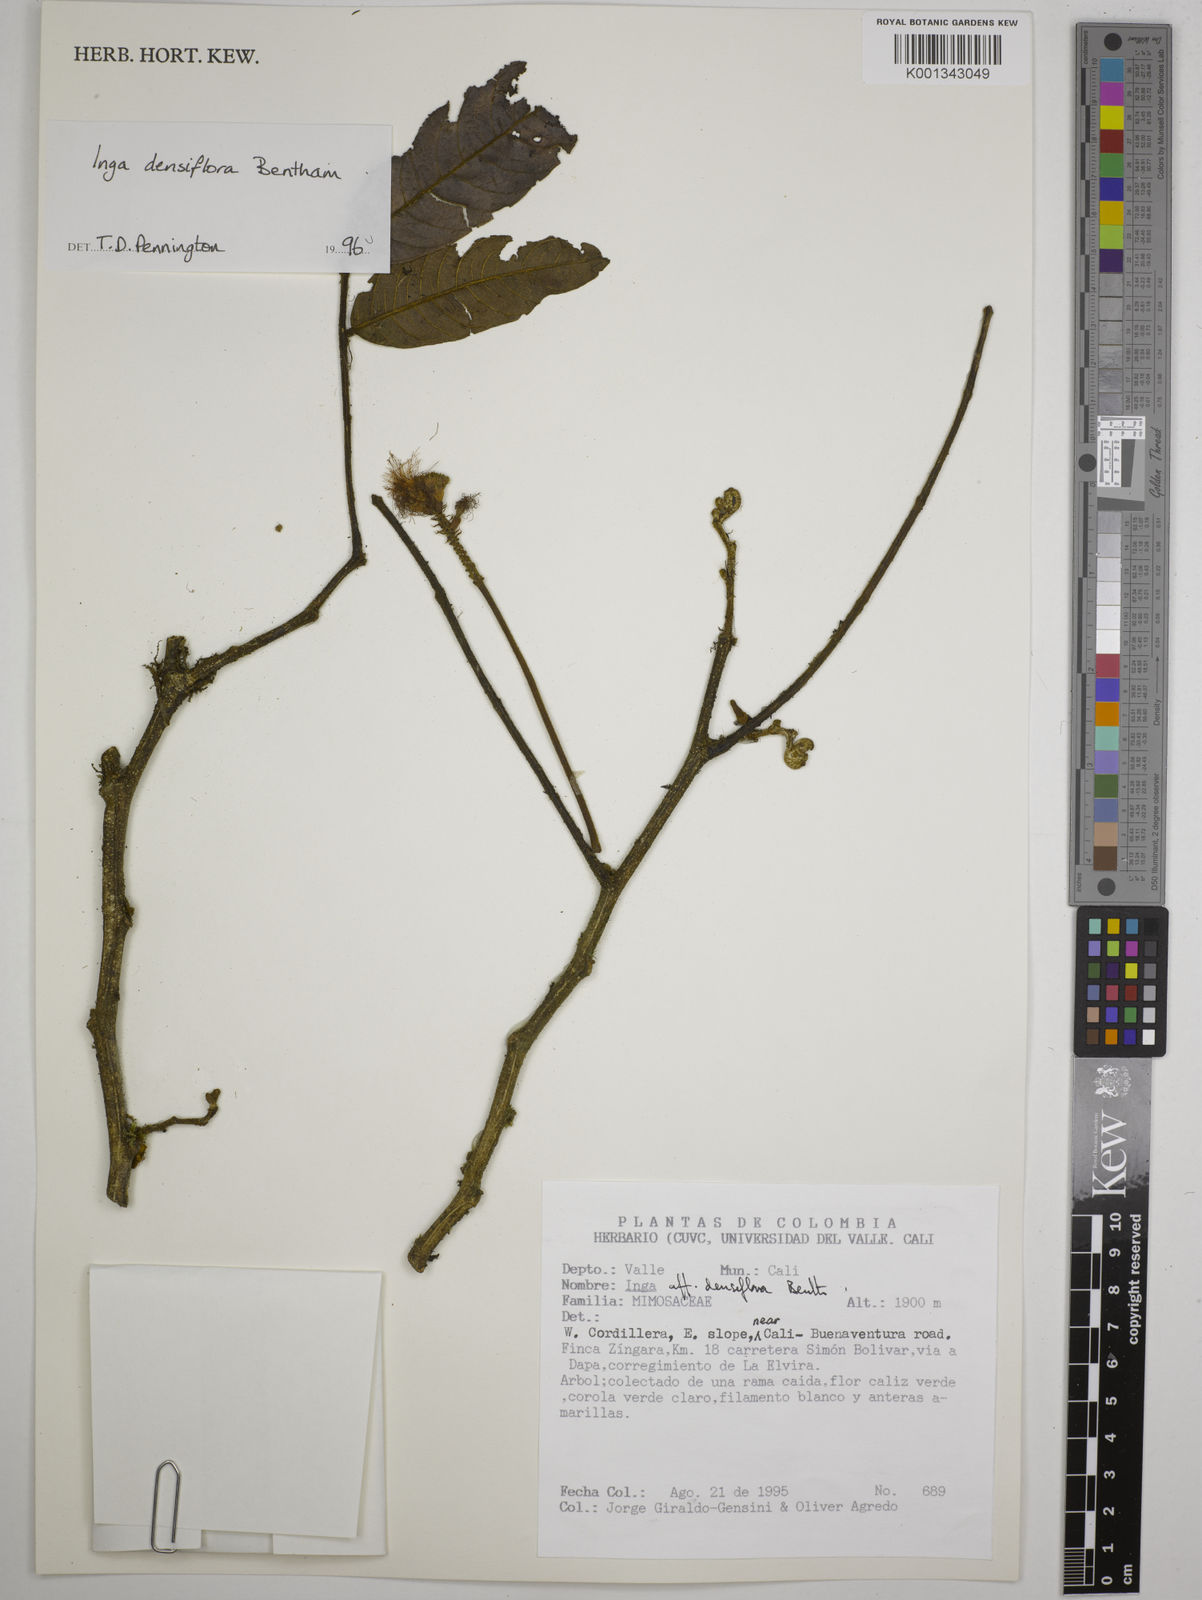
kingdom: Plantae
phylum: Tracheophyta
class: Magnoliopsida
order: Fabales
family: Fabaceae
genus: Inga
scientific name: Inga densiflora
